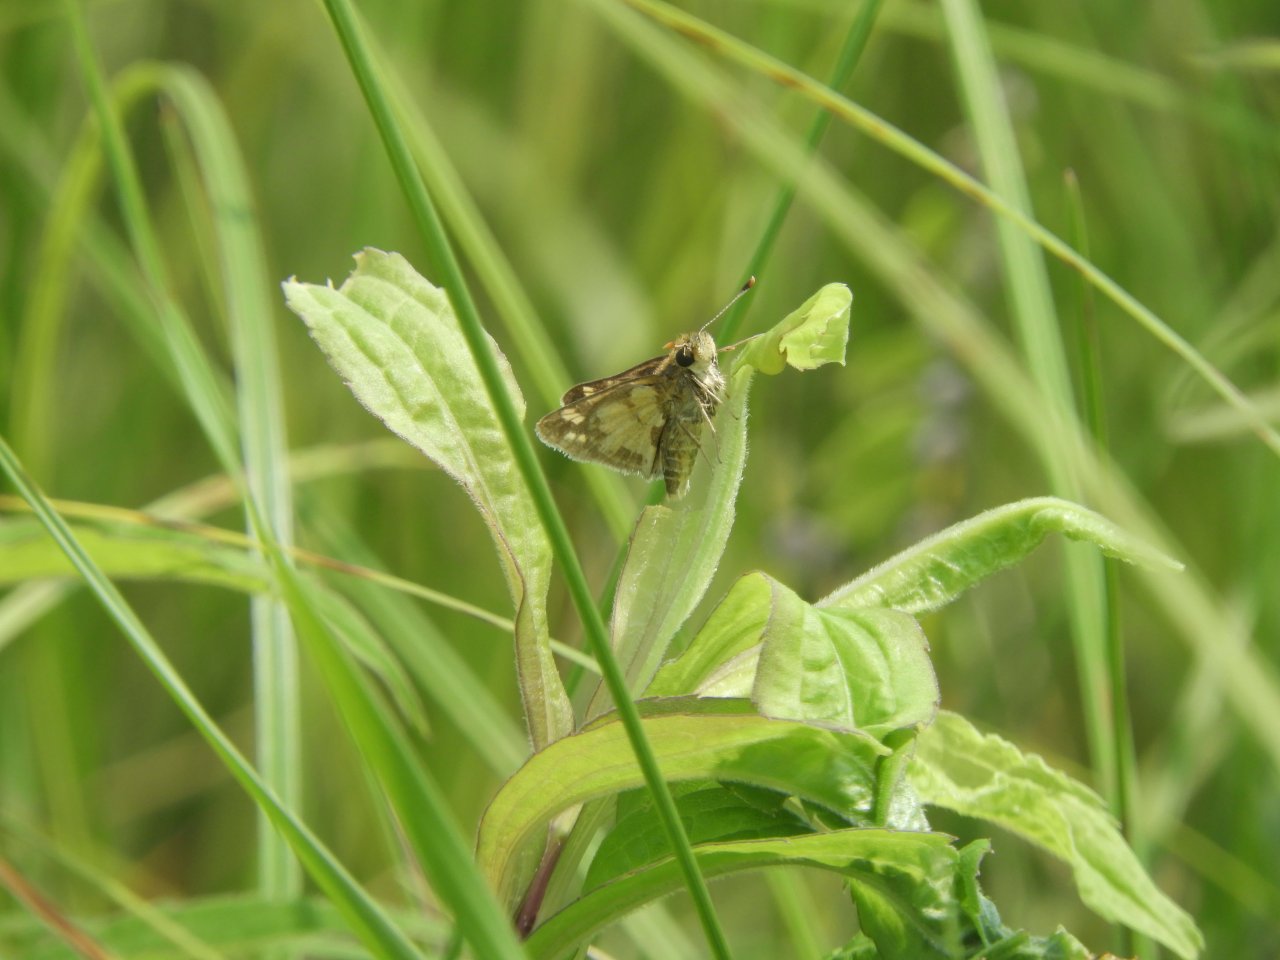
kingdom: Animalia
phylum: Arthropoda
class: Insecta
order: Lepidoptera
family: Hesperiidae
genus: Polites
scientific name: Polites coras
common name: Peck's Skipper
